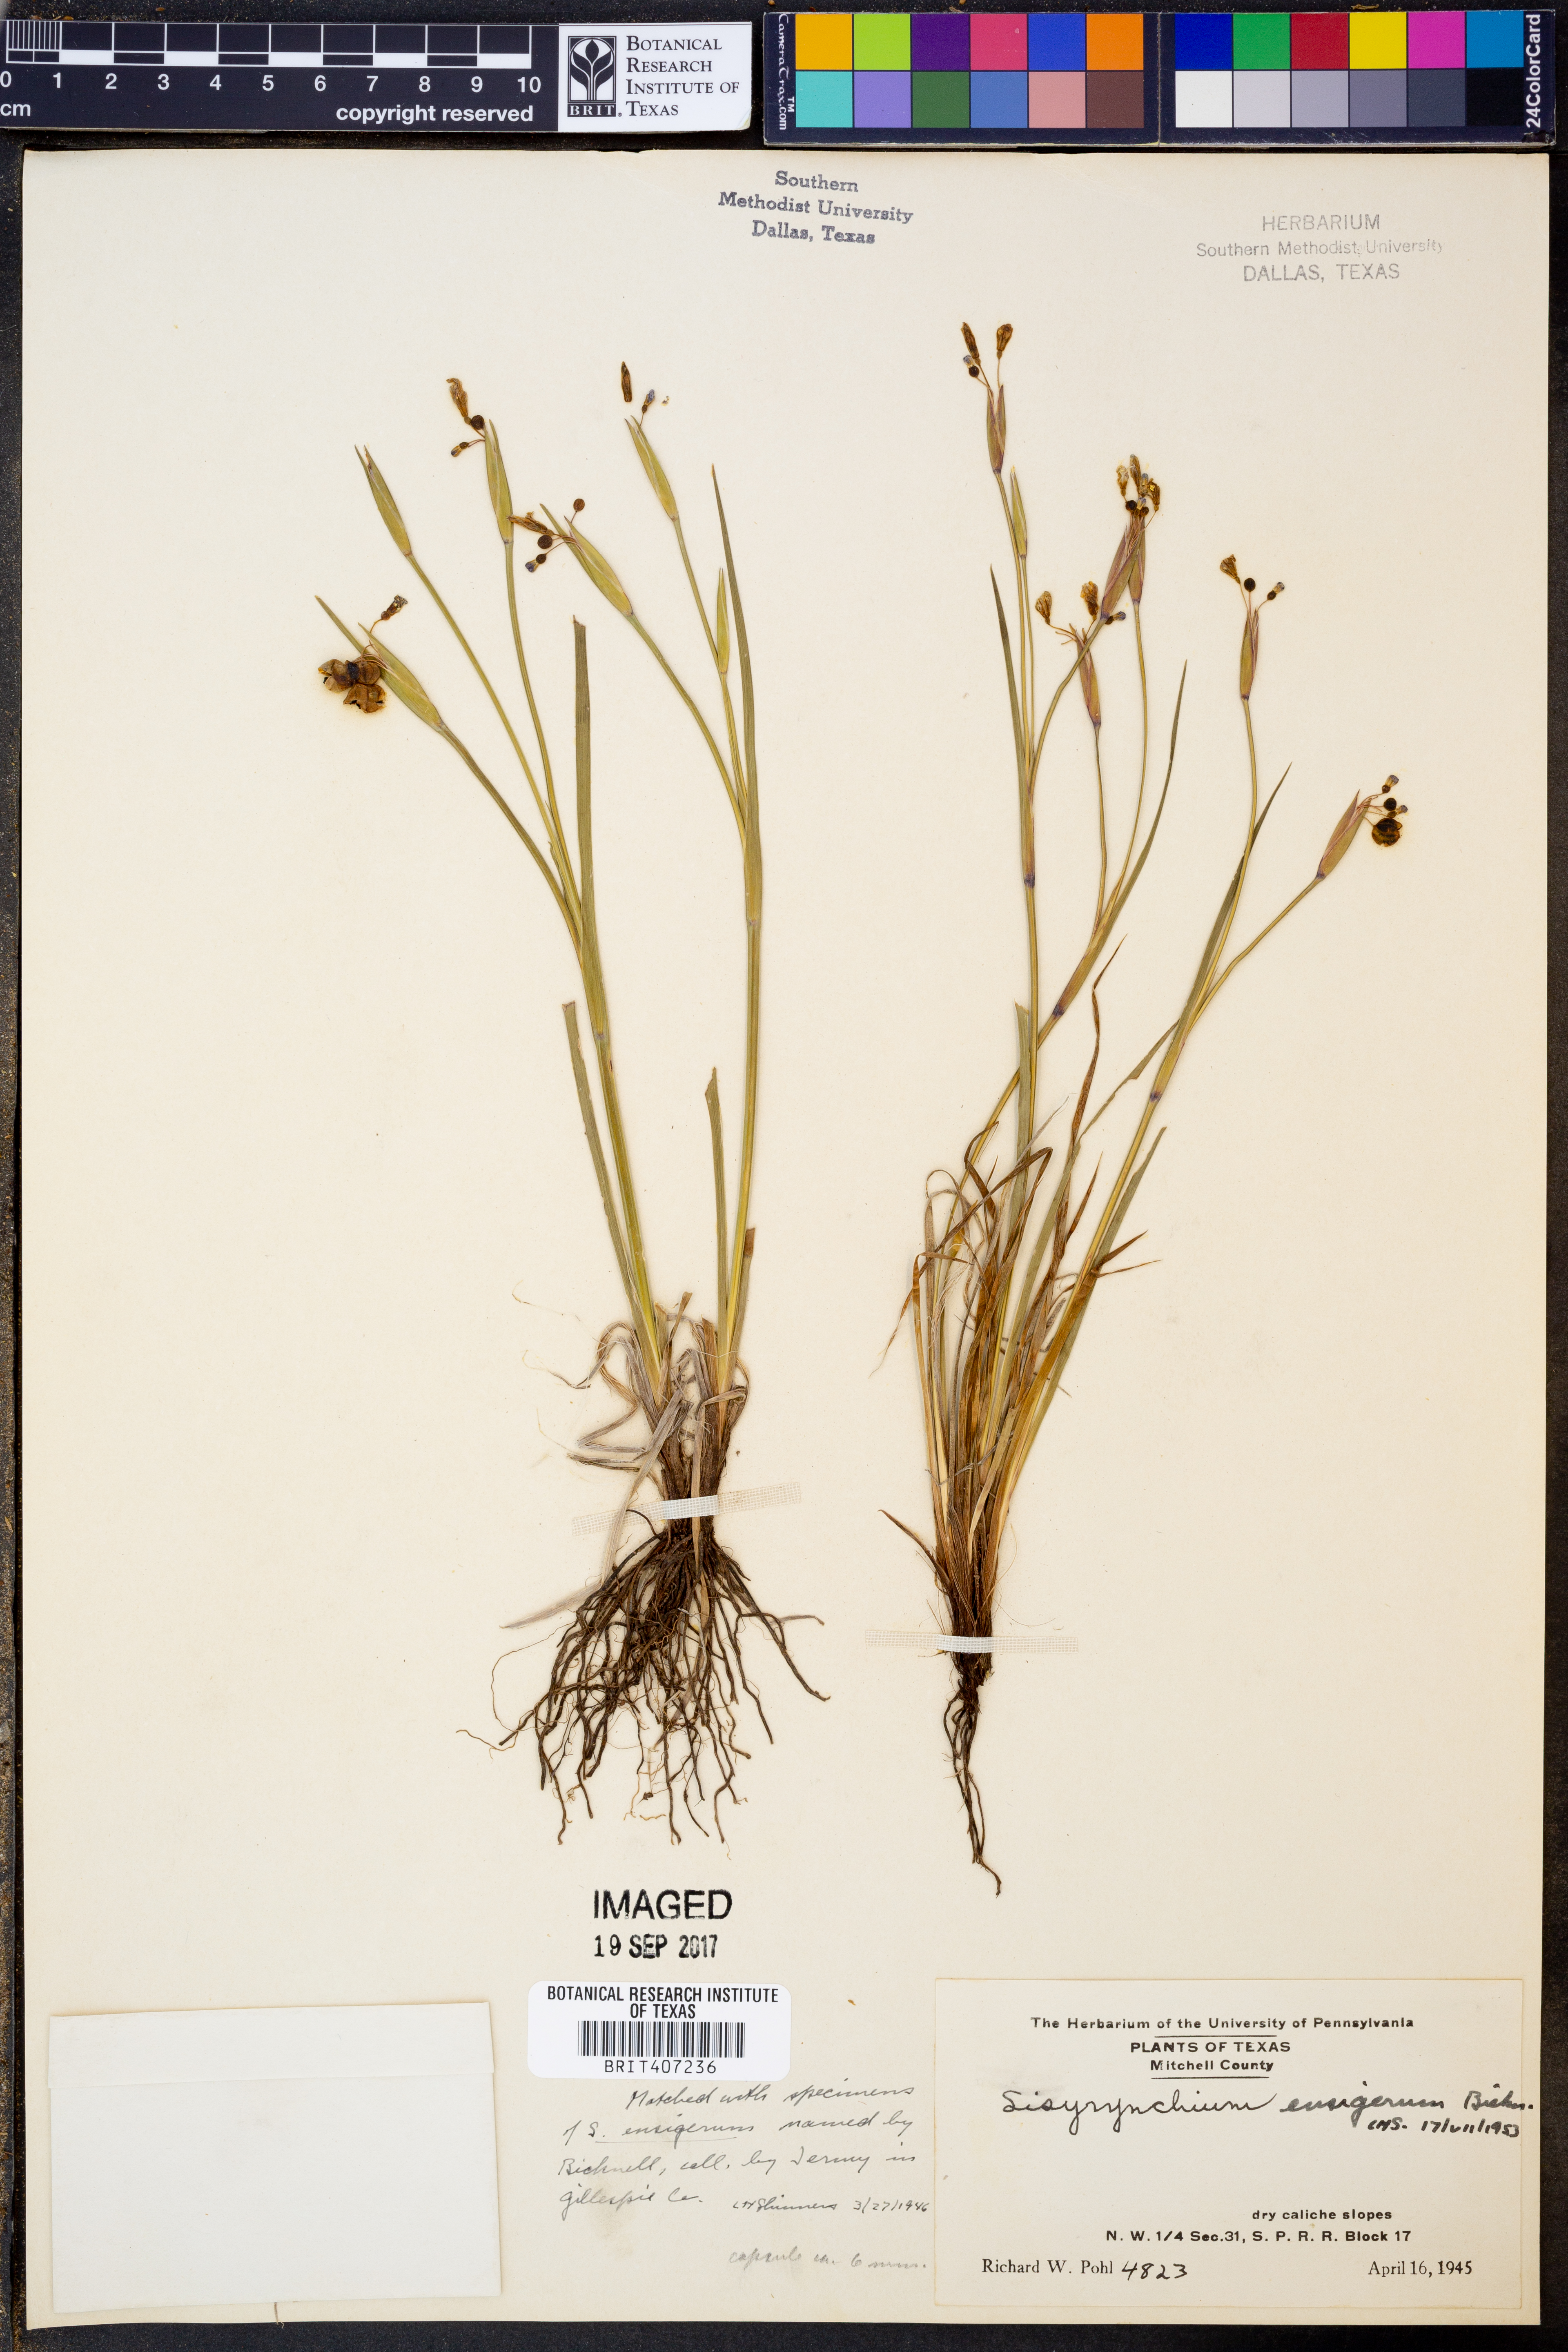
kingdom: Plantae
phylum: Tracheophyta
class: Liliopsida
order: Asparagales
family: Iridaceae
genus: Sisyrinchium
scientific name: Sisyrinchium ensigerum
